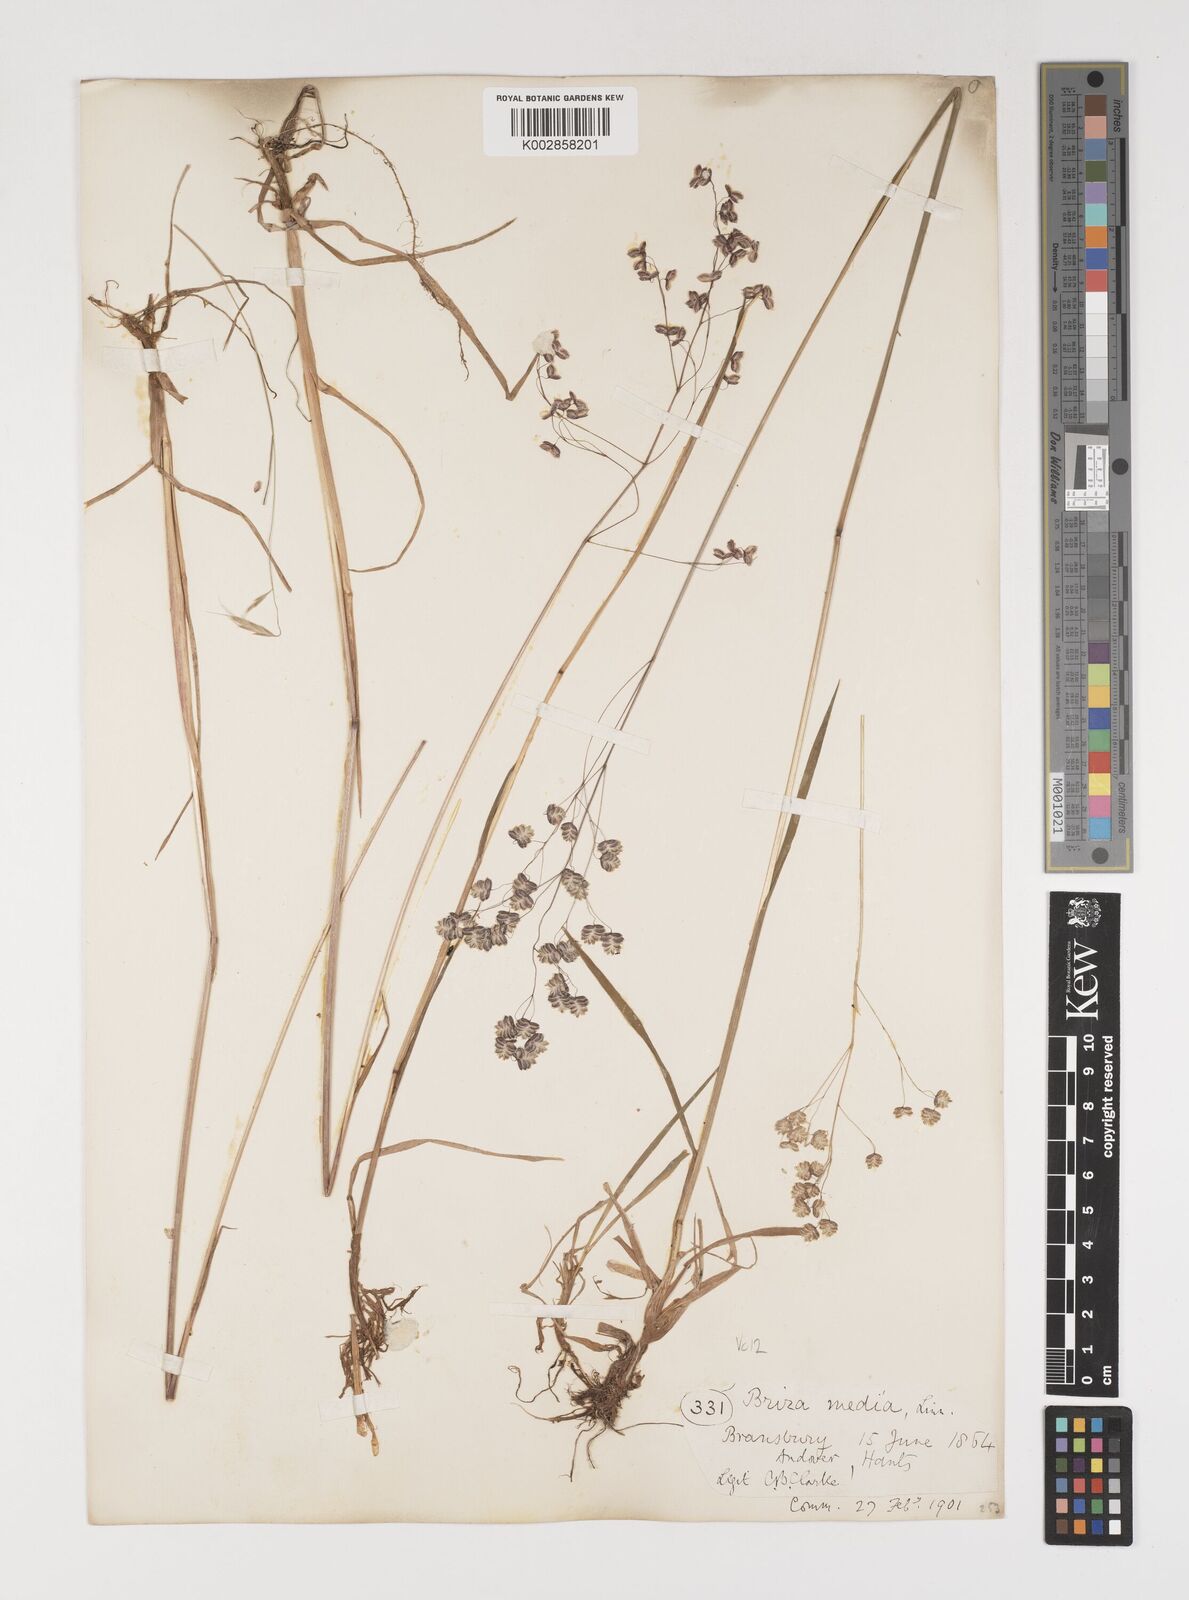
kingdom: Plantae
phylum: Tracheophyta
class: Liliopsida
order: Poales
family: Poaceae
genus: Briza
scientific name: Briza media
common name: Quaking grass
